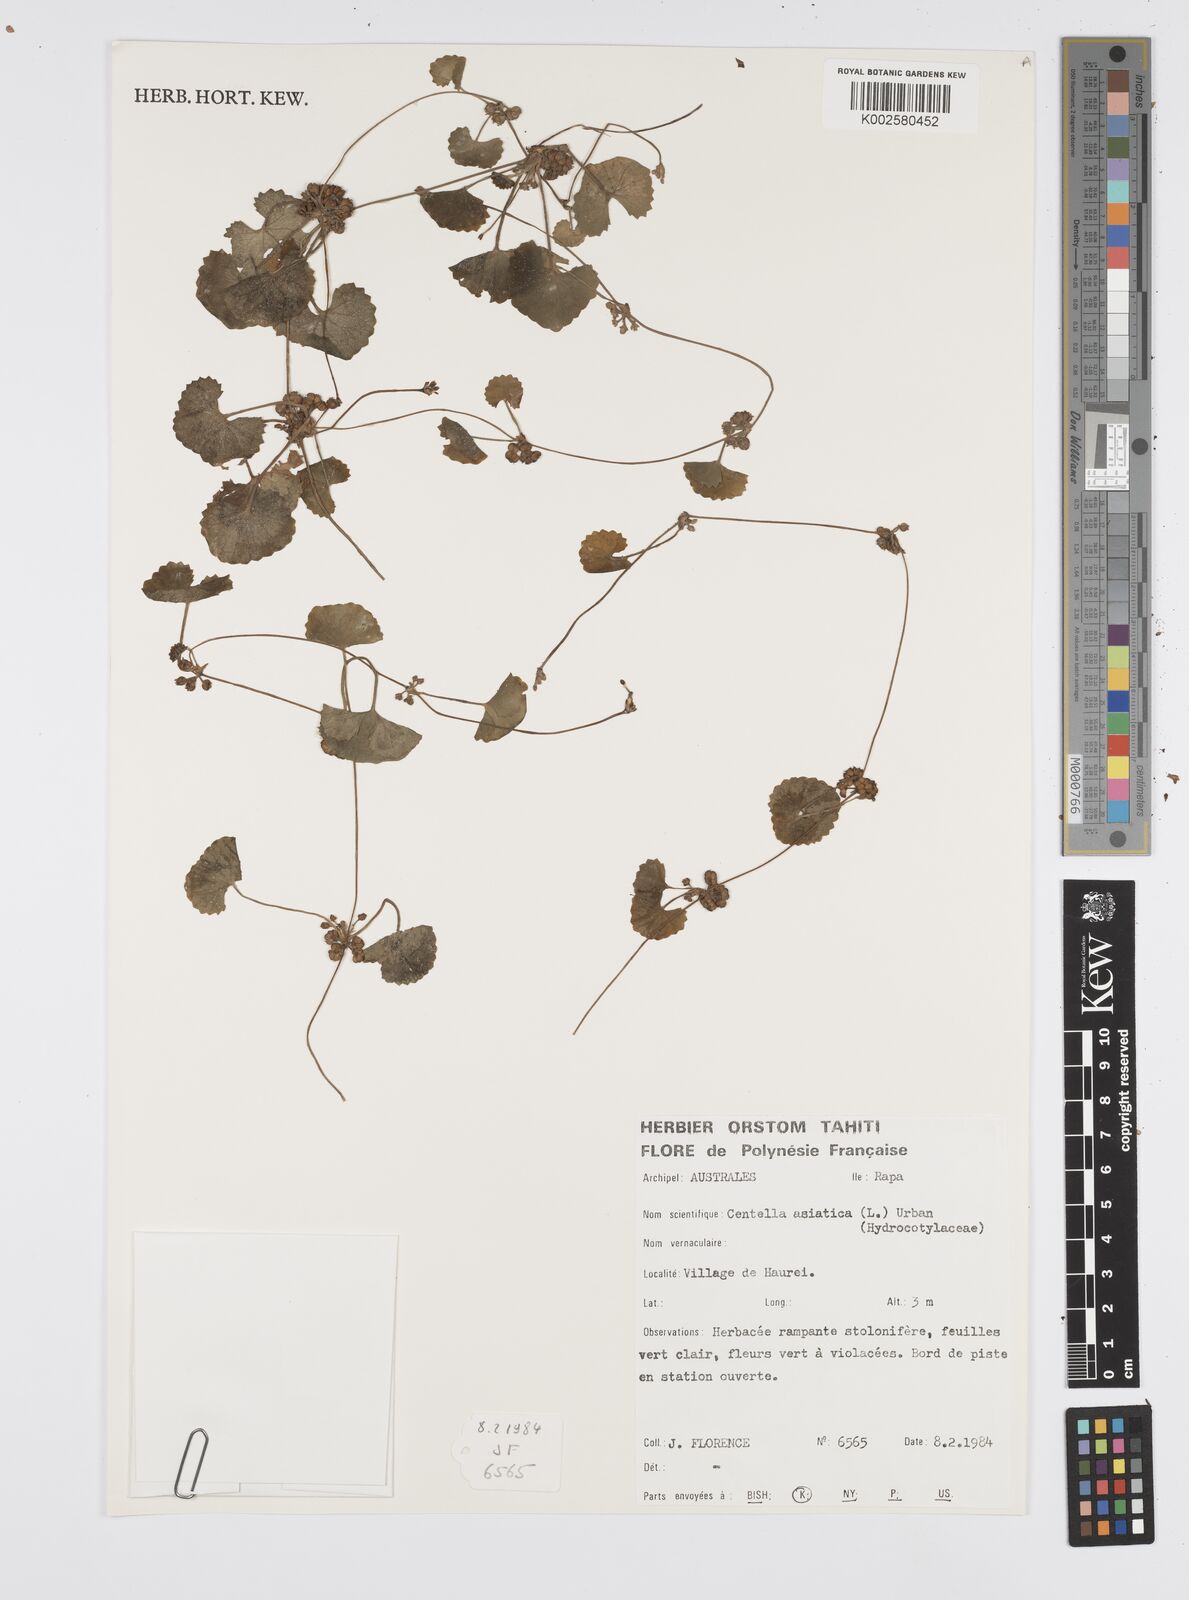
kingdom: Plantae
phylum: Tracheophyta
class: Magnoliopsida
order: Apiales
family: Apiaceae
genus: Centella
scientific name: Centella asiatica
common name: Spadeleaf
